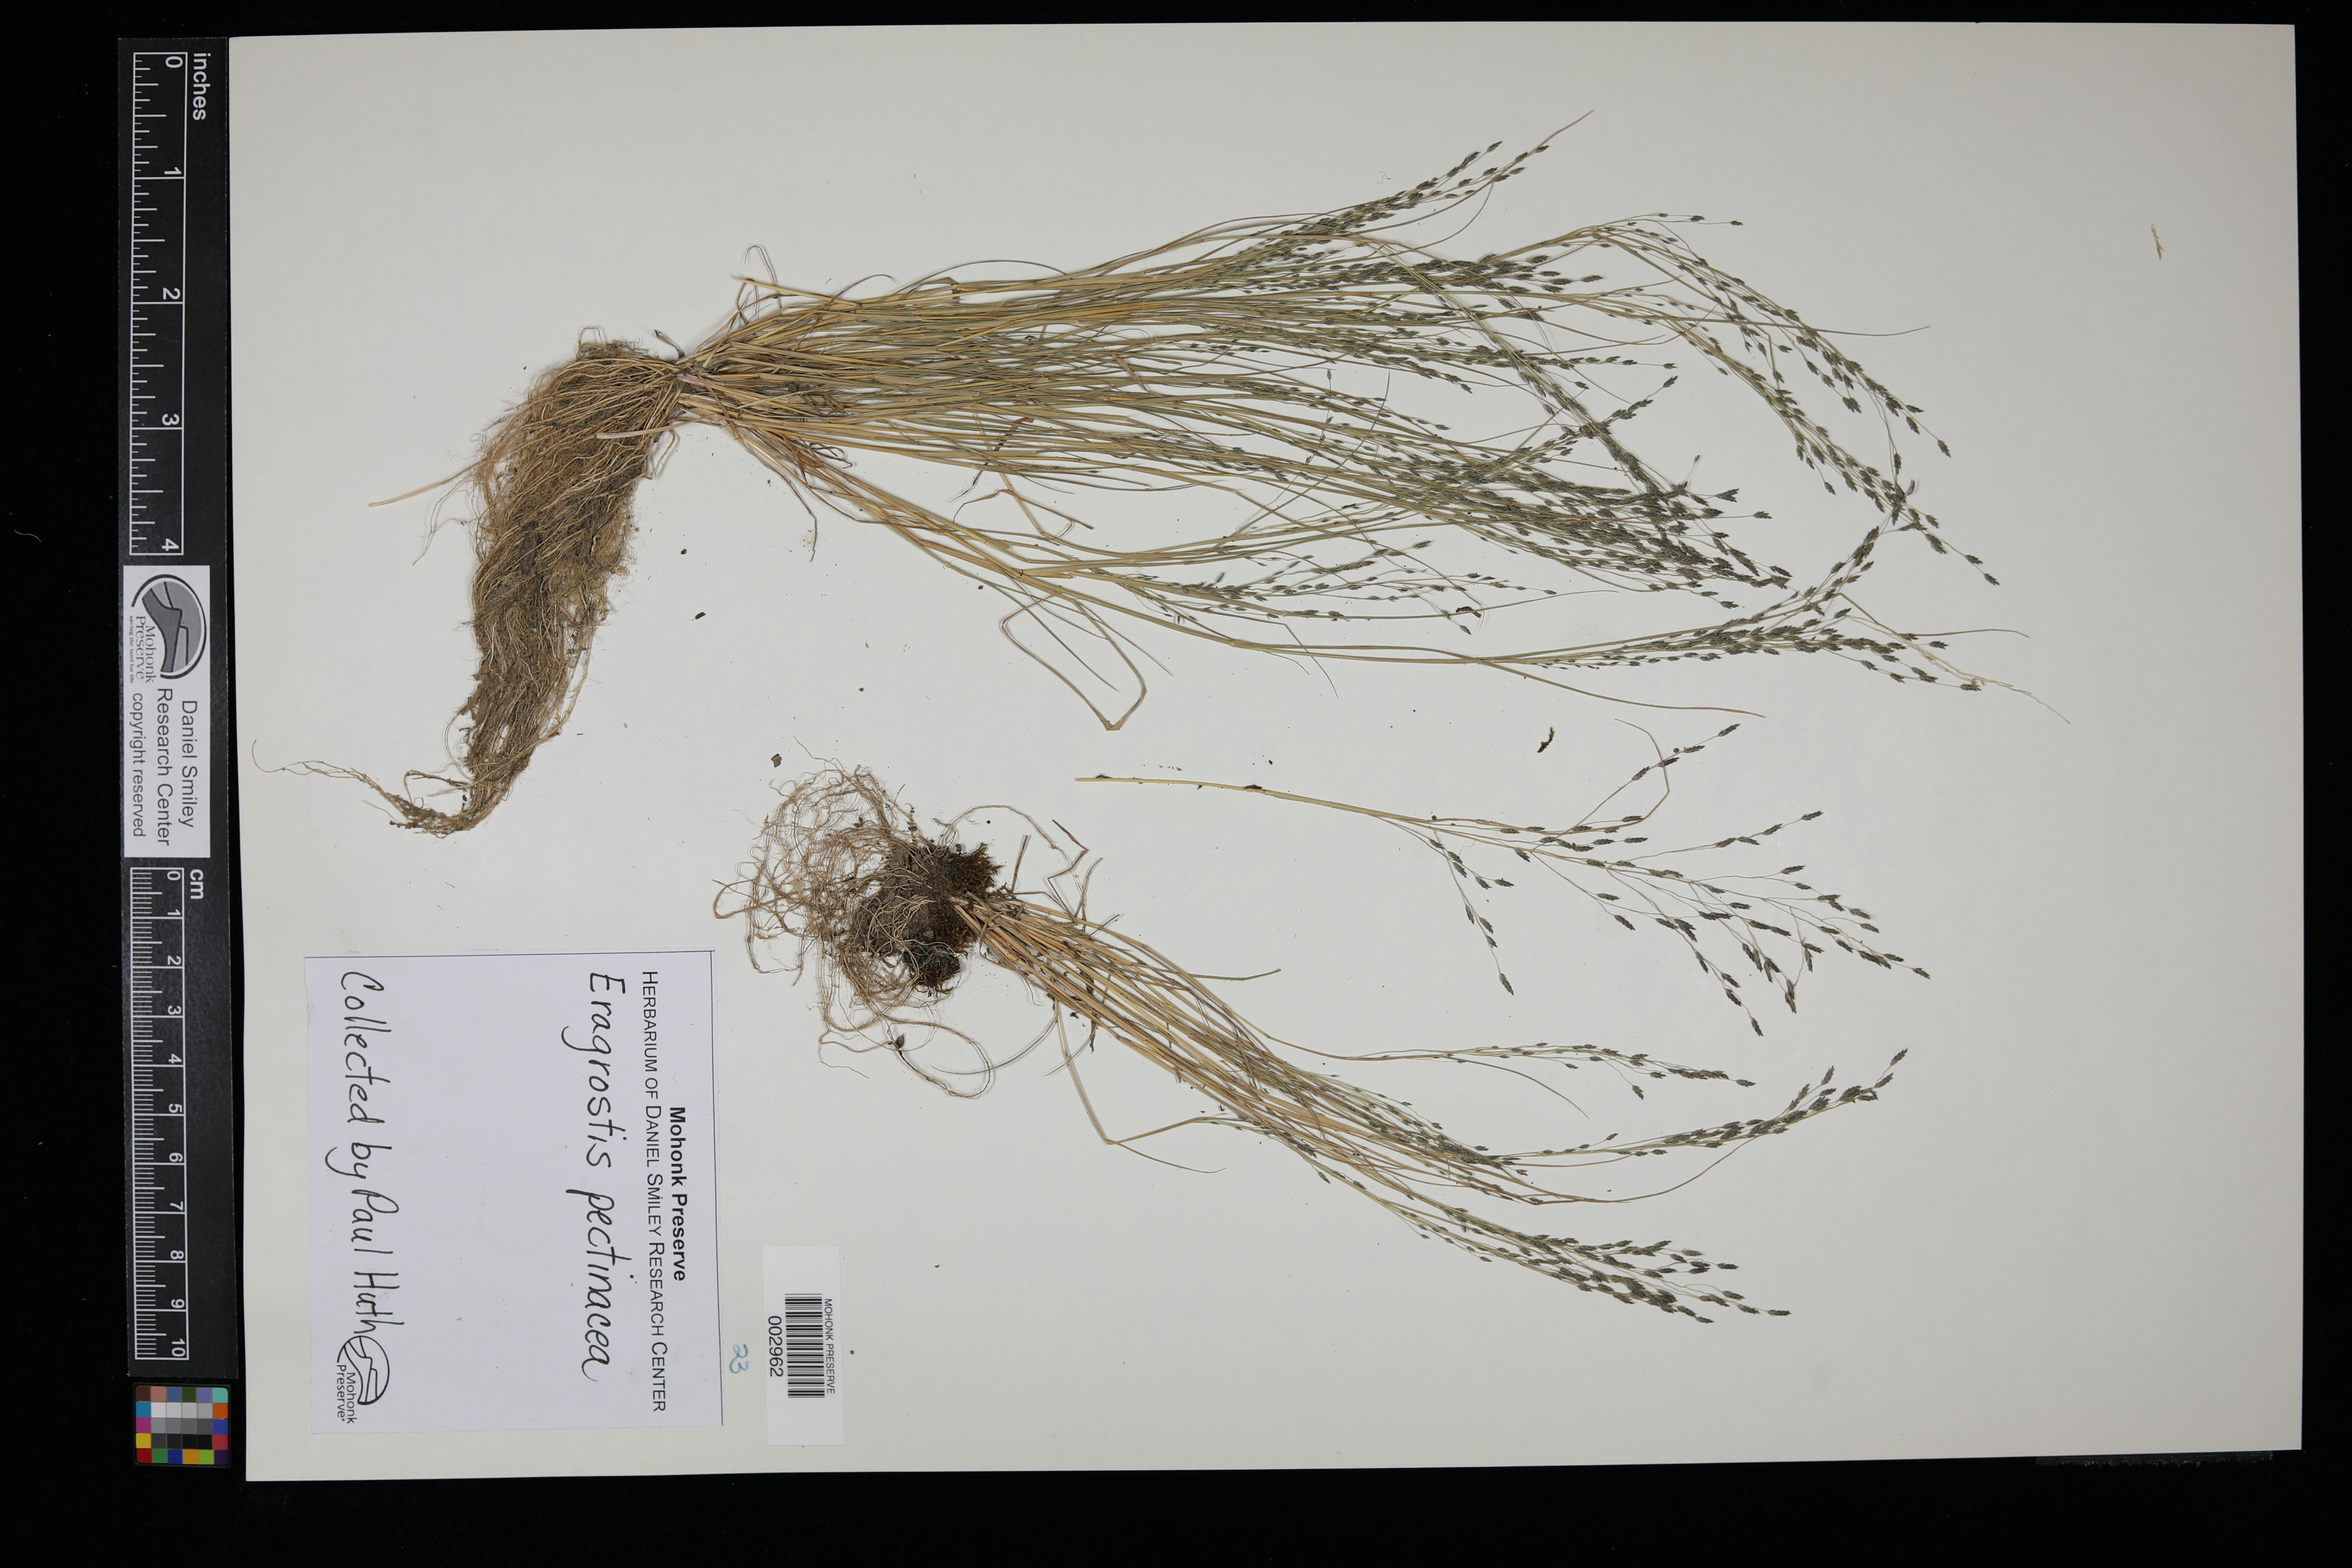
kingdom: Plantae
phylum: Tracheophyta
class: Liliopsida
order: Poales
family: Poaceae
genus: Eragrostis
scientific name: Eragrostis pectinacea
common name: Tufted lovegrass
